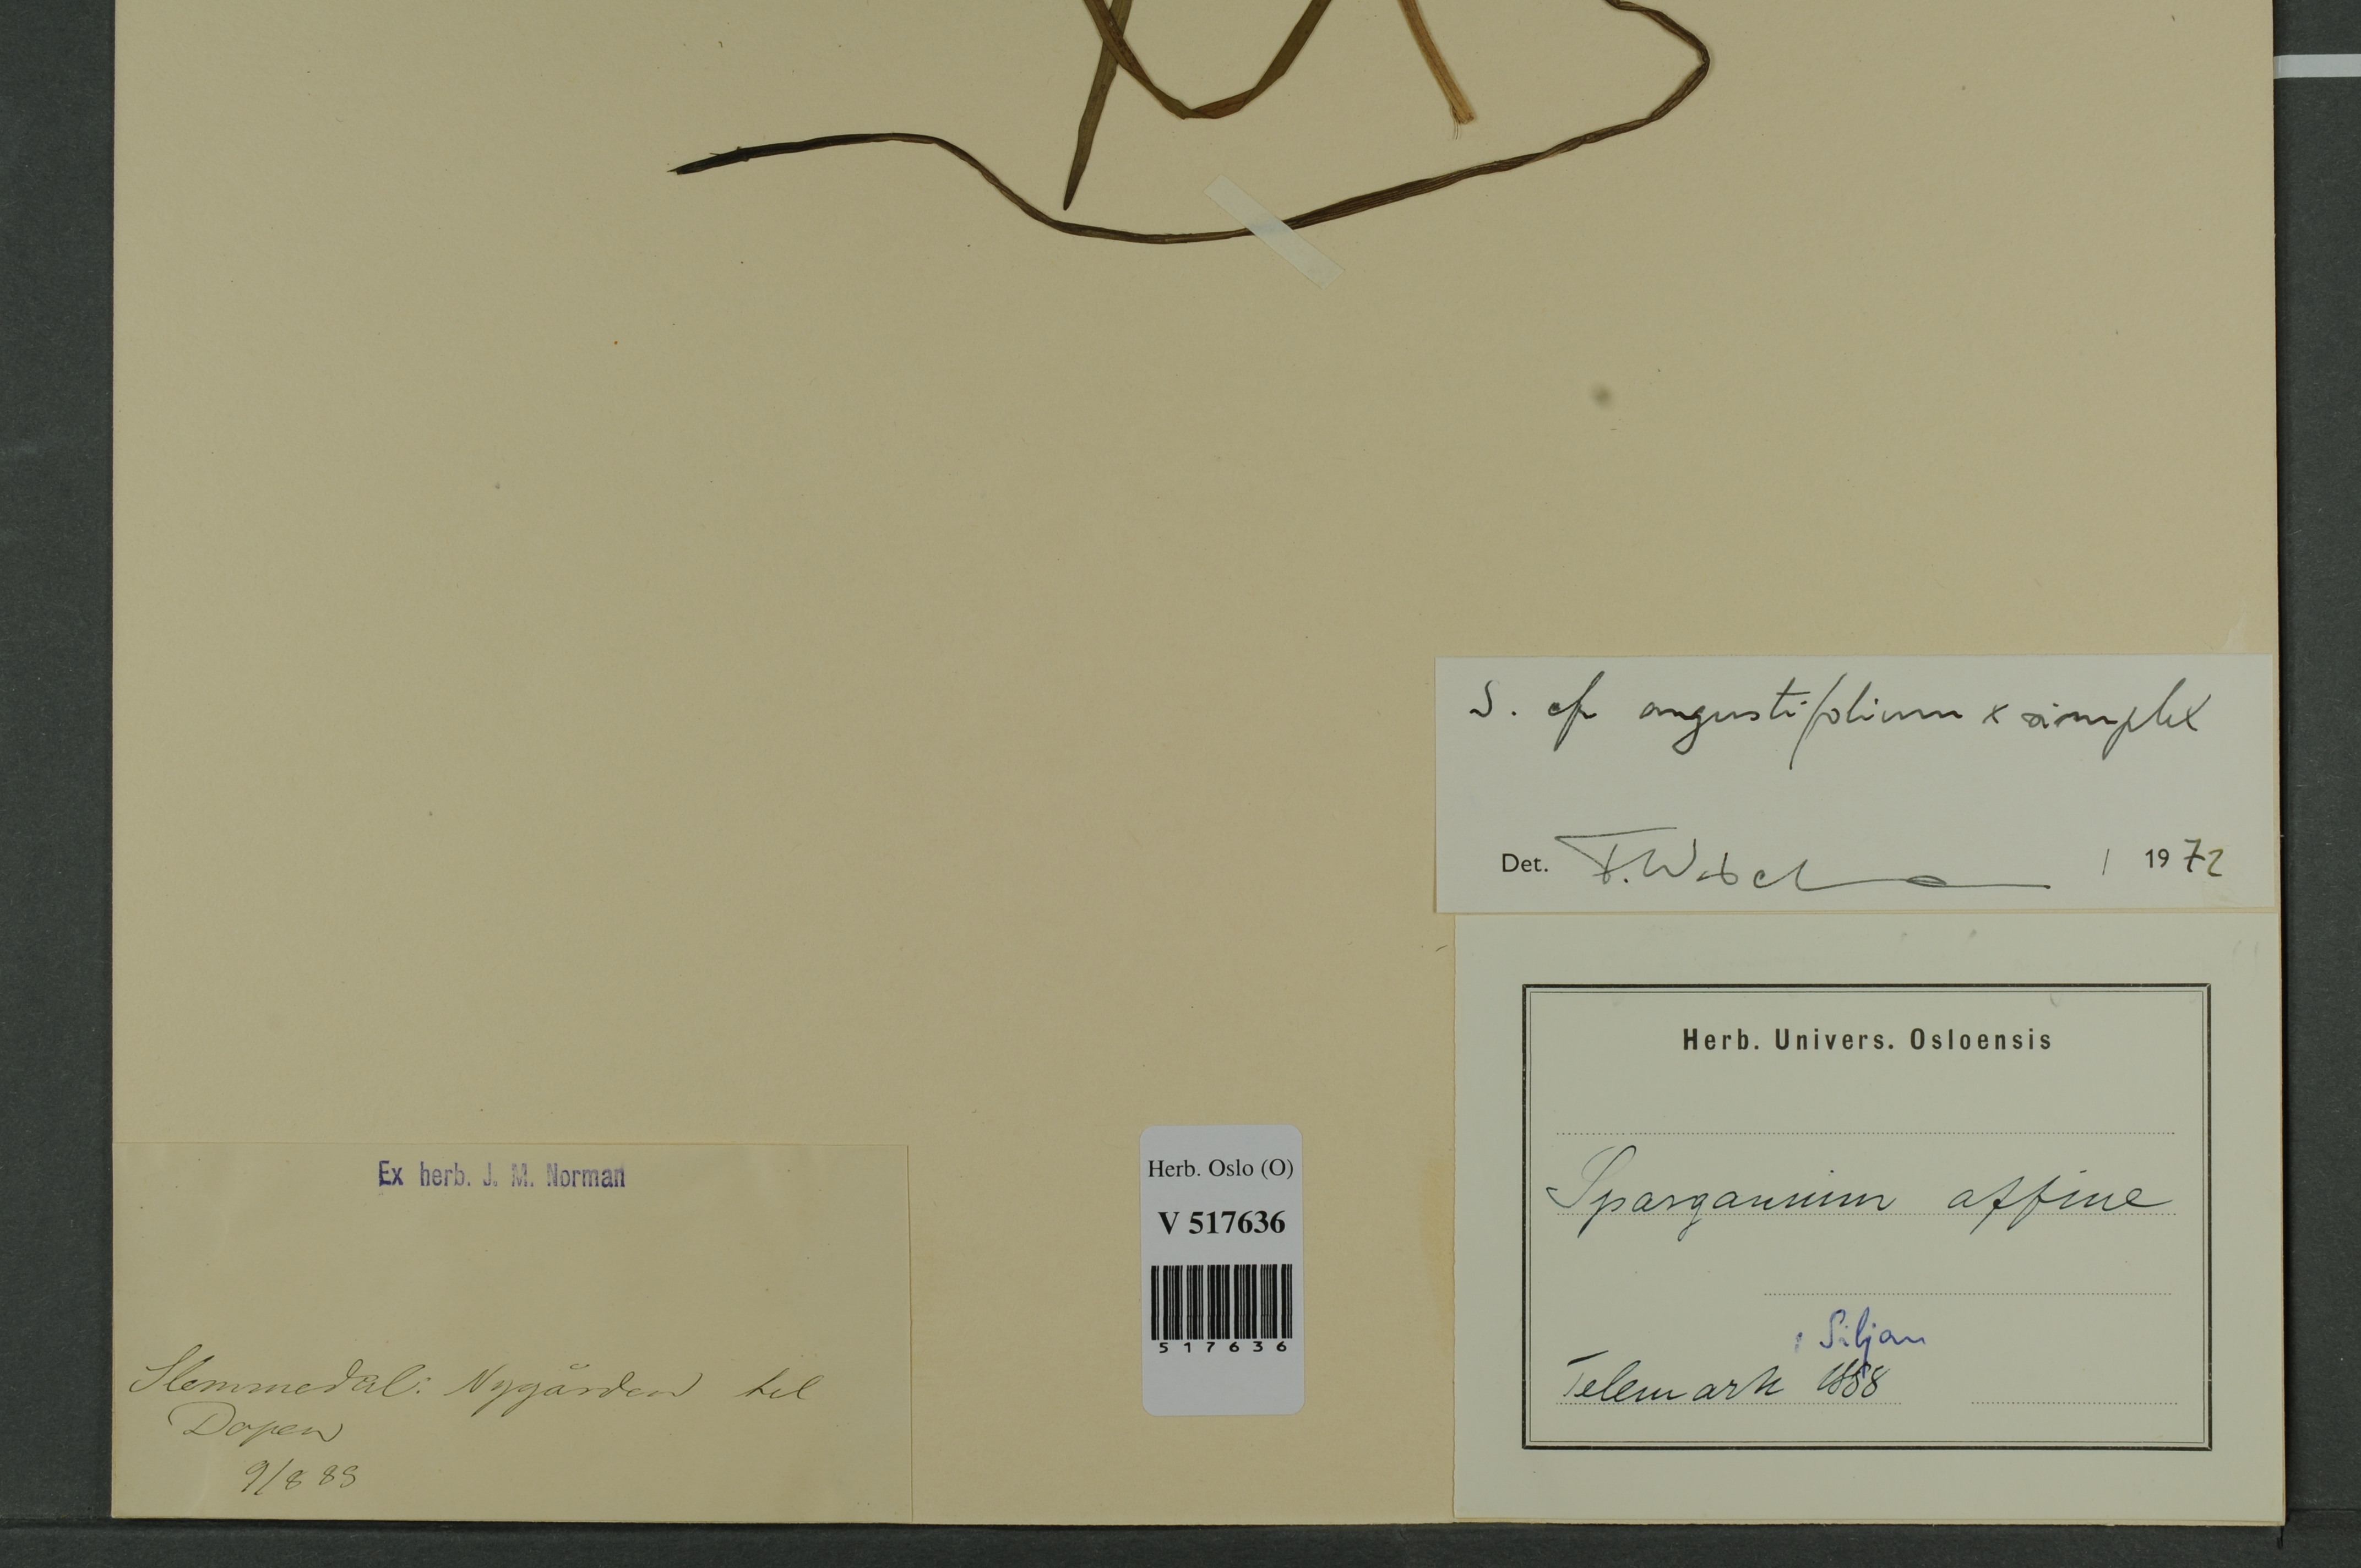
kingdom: Plantae
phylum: Tracheophyta
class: Liliopsida
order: Poales
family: Typhaceae
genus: Sparganium
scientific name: Sparganium
